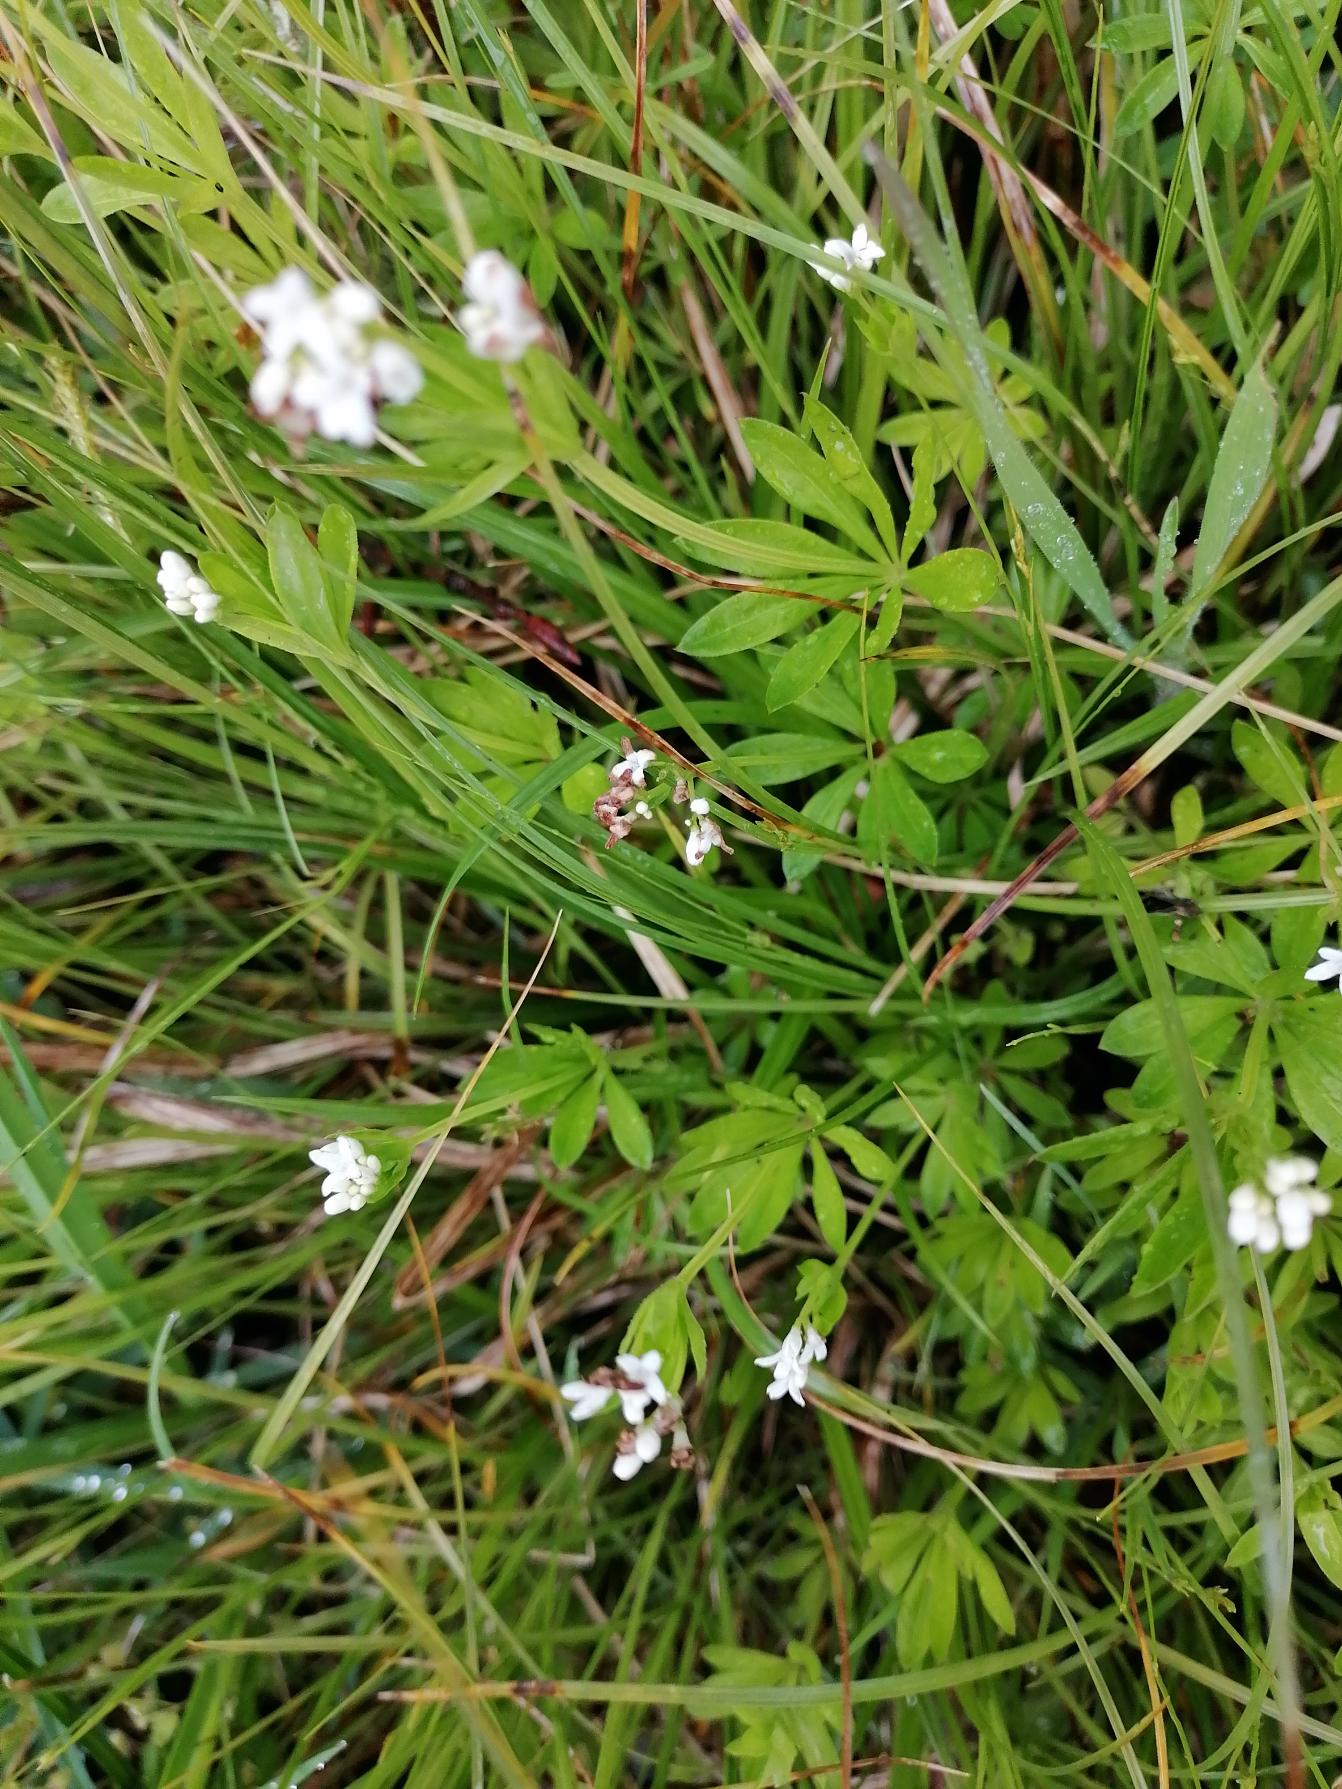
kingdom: Plantae
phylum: Tracheophyta
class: Magnoliopsida
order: Gentianales
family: Rubiaceae
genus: Galium
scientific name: Galium odoratum
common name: Skovmærke
